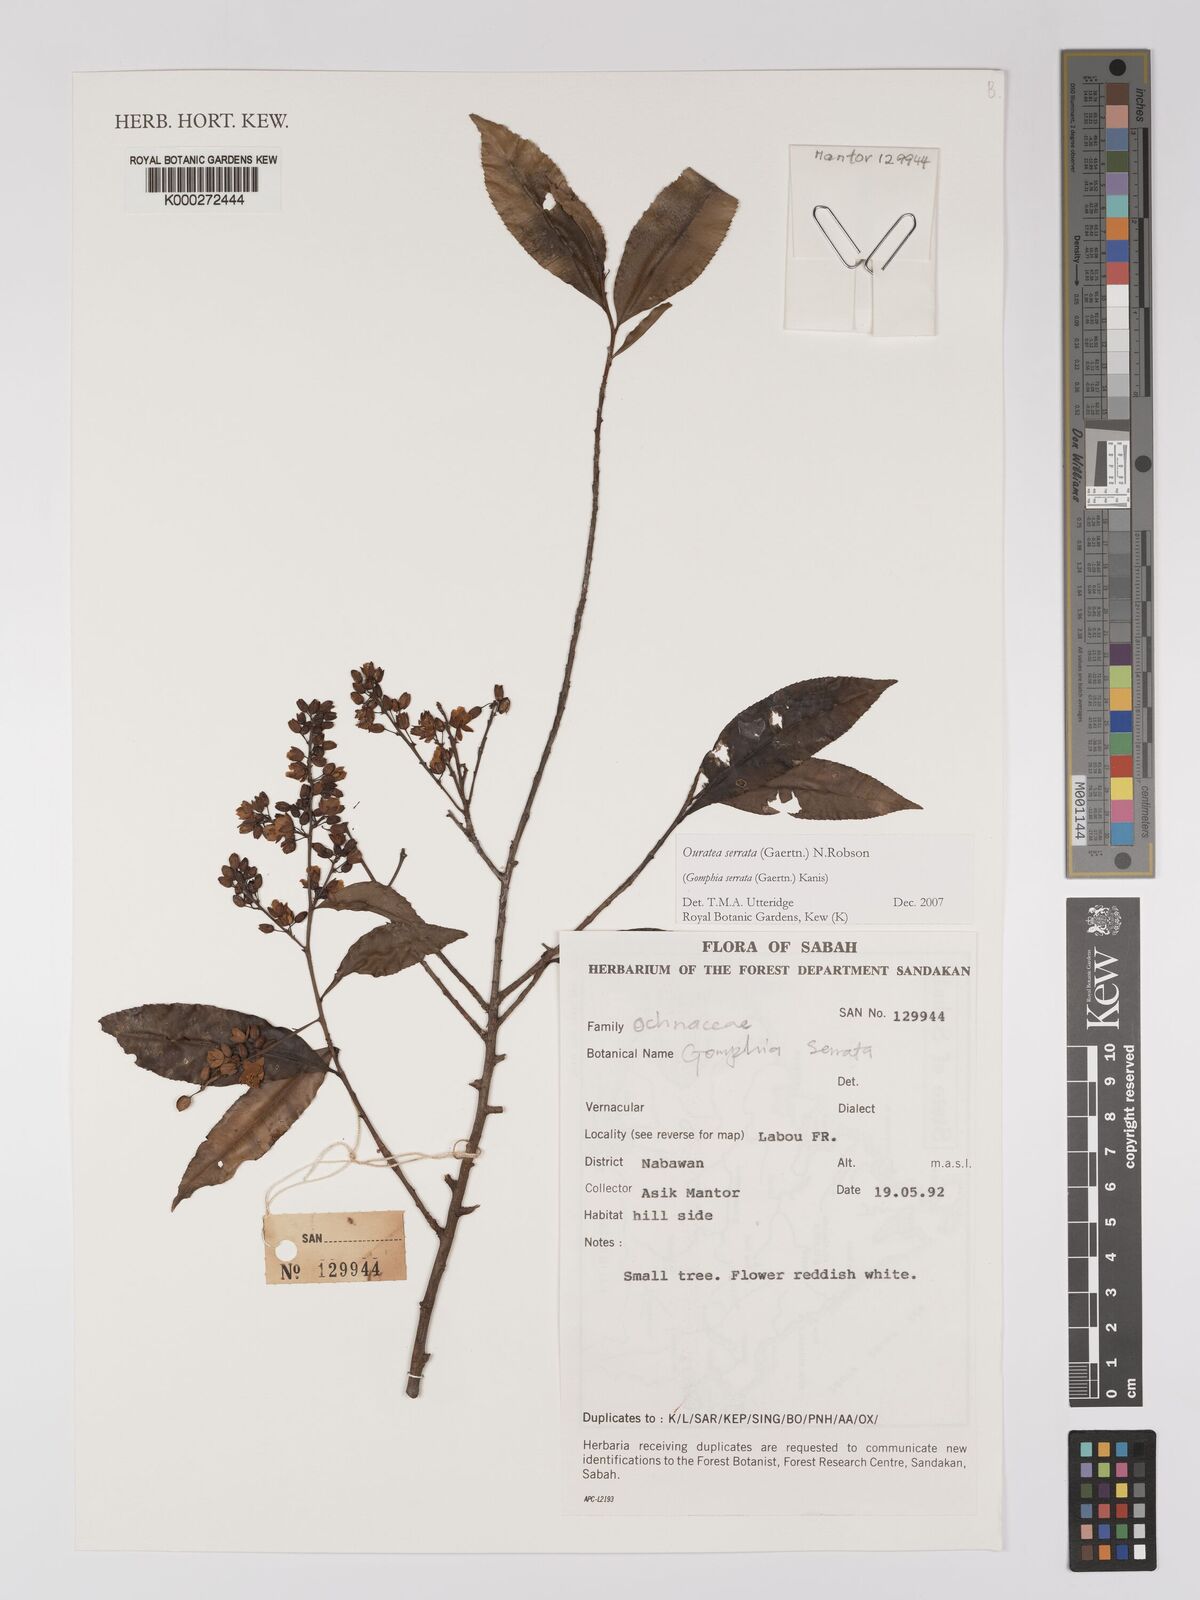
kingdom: Plantae
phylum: Tracheophyta
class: Magnoliopsida
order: Malpighiales
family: Ochnaceae
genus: Gomphia
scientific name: Gomphia serrata
